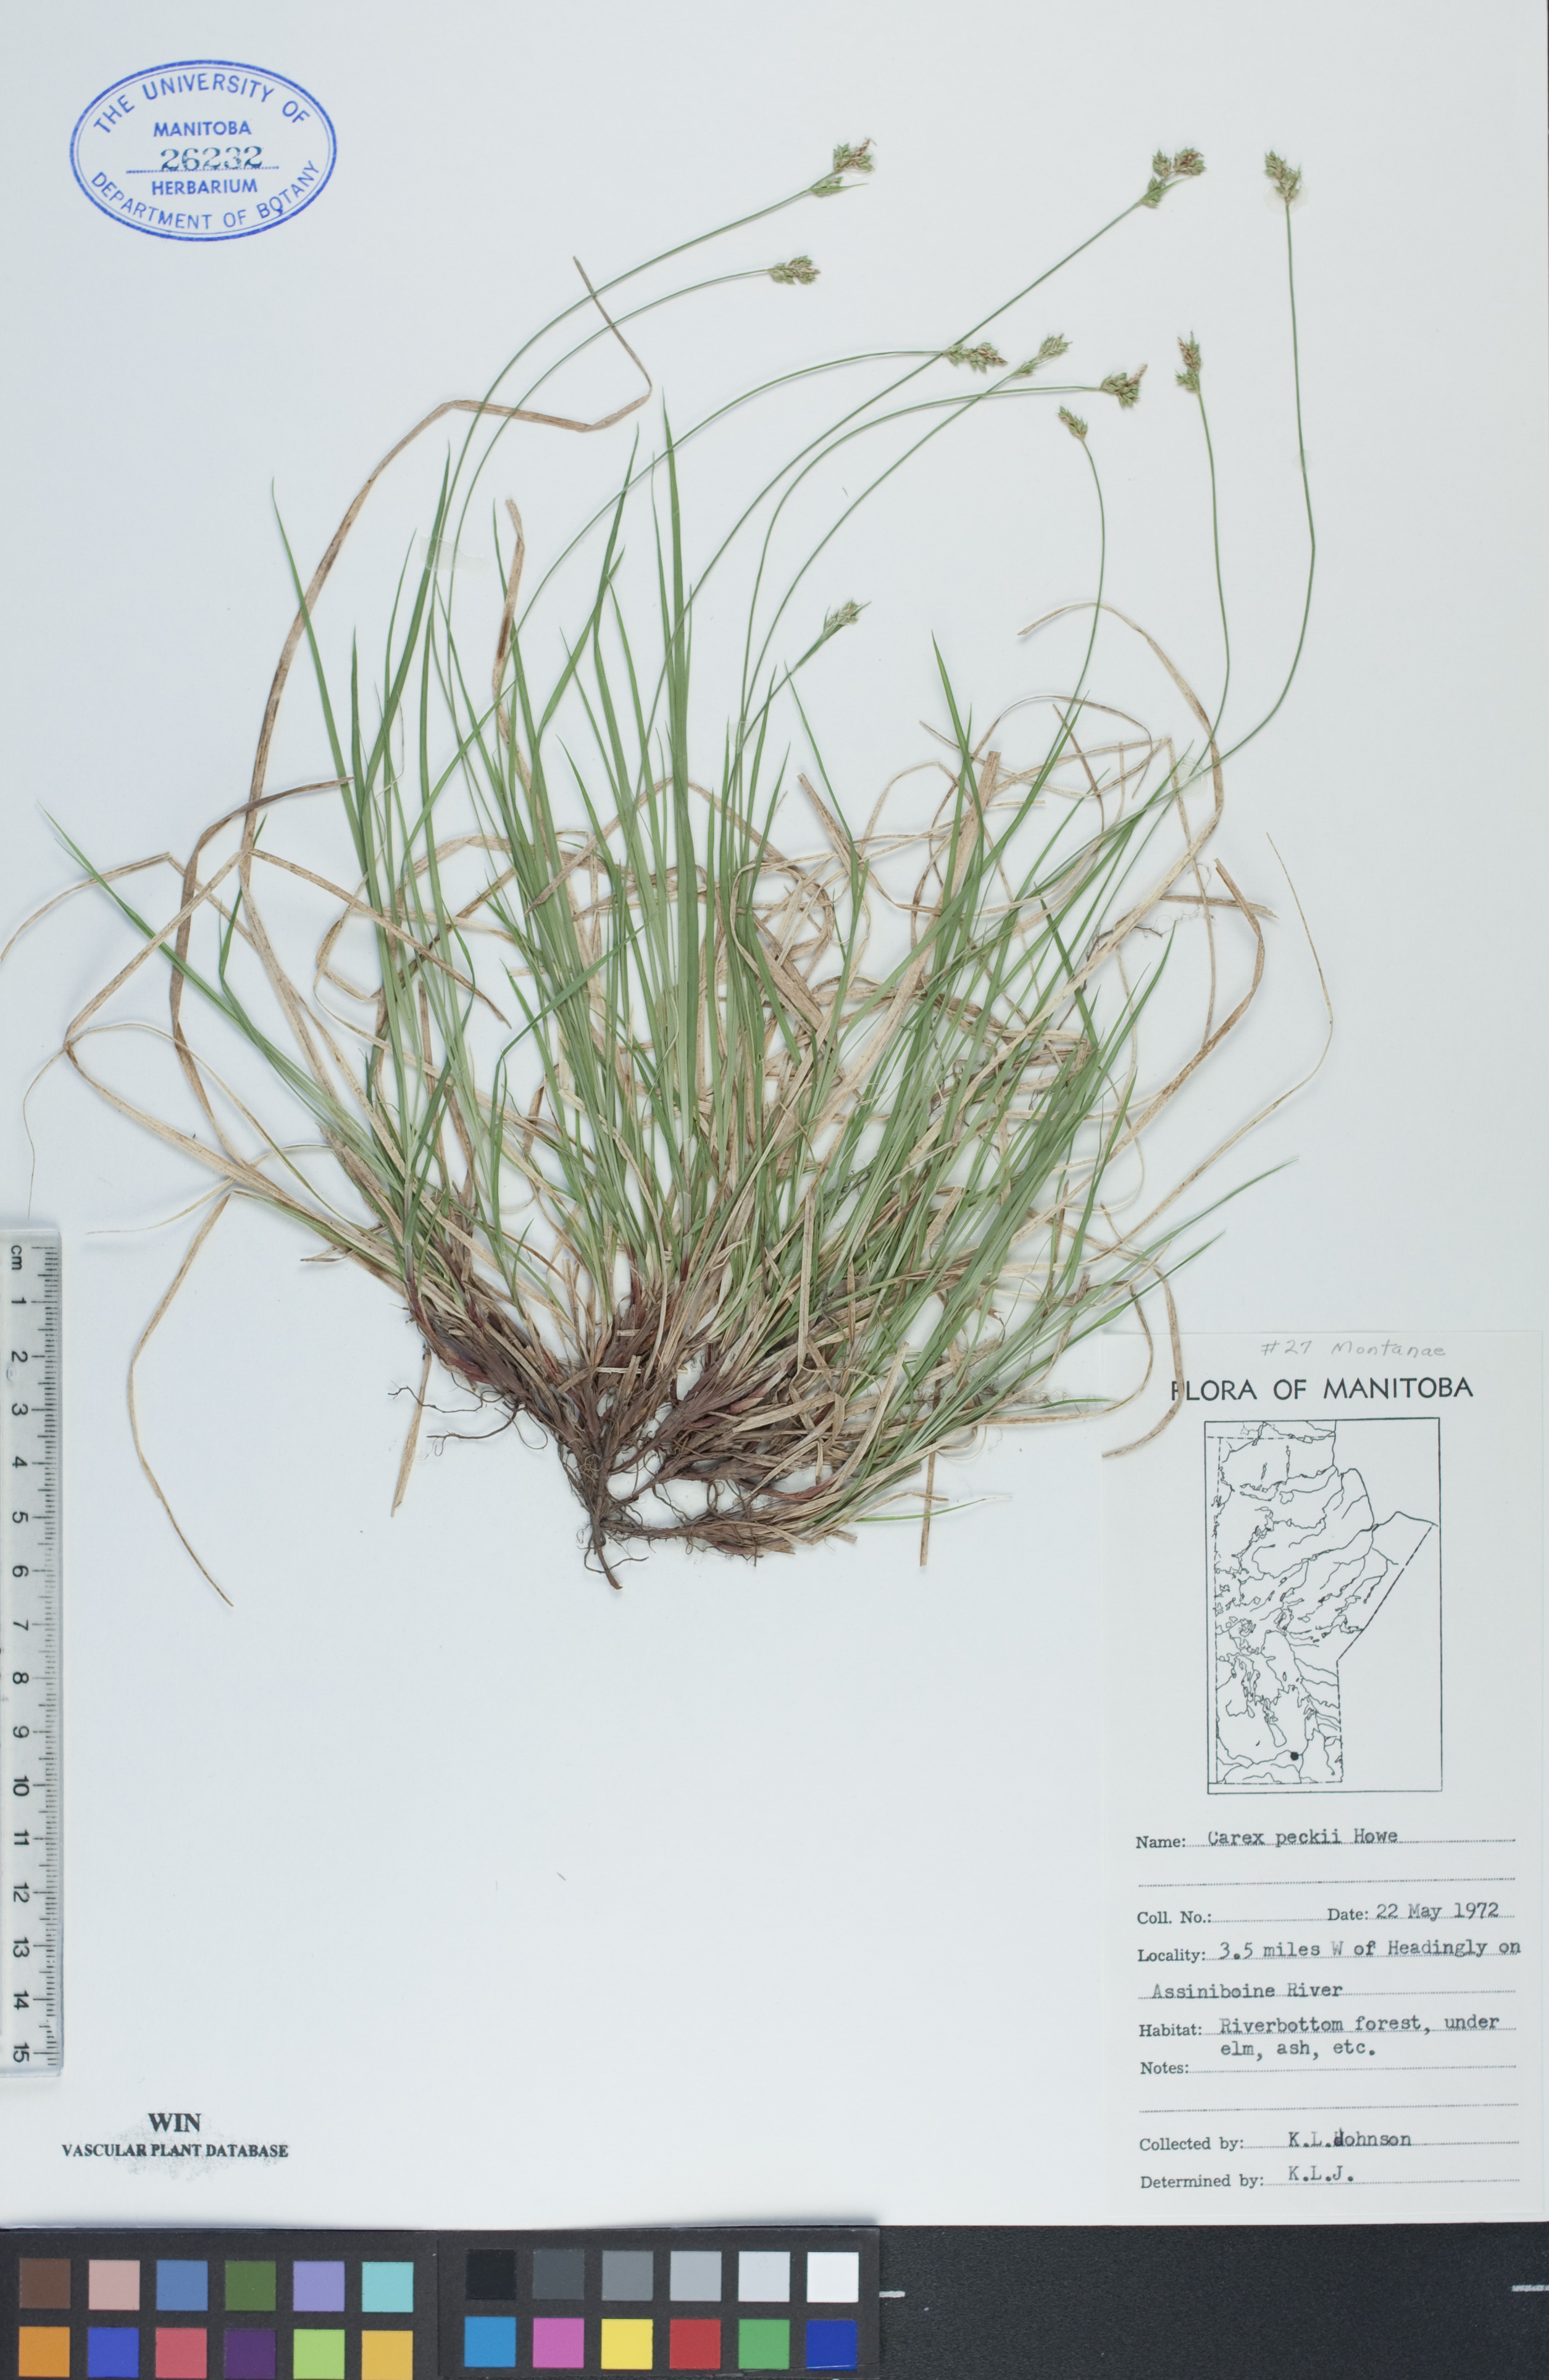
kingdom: Plantae
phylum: Tracheophyta
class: Liliopsida
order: Poales
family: Cyperaceae
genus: Carex
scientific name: Carex peckii
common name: Peck's oak sedge
